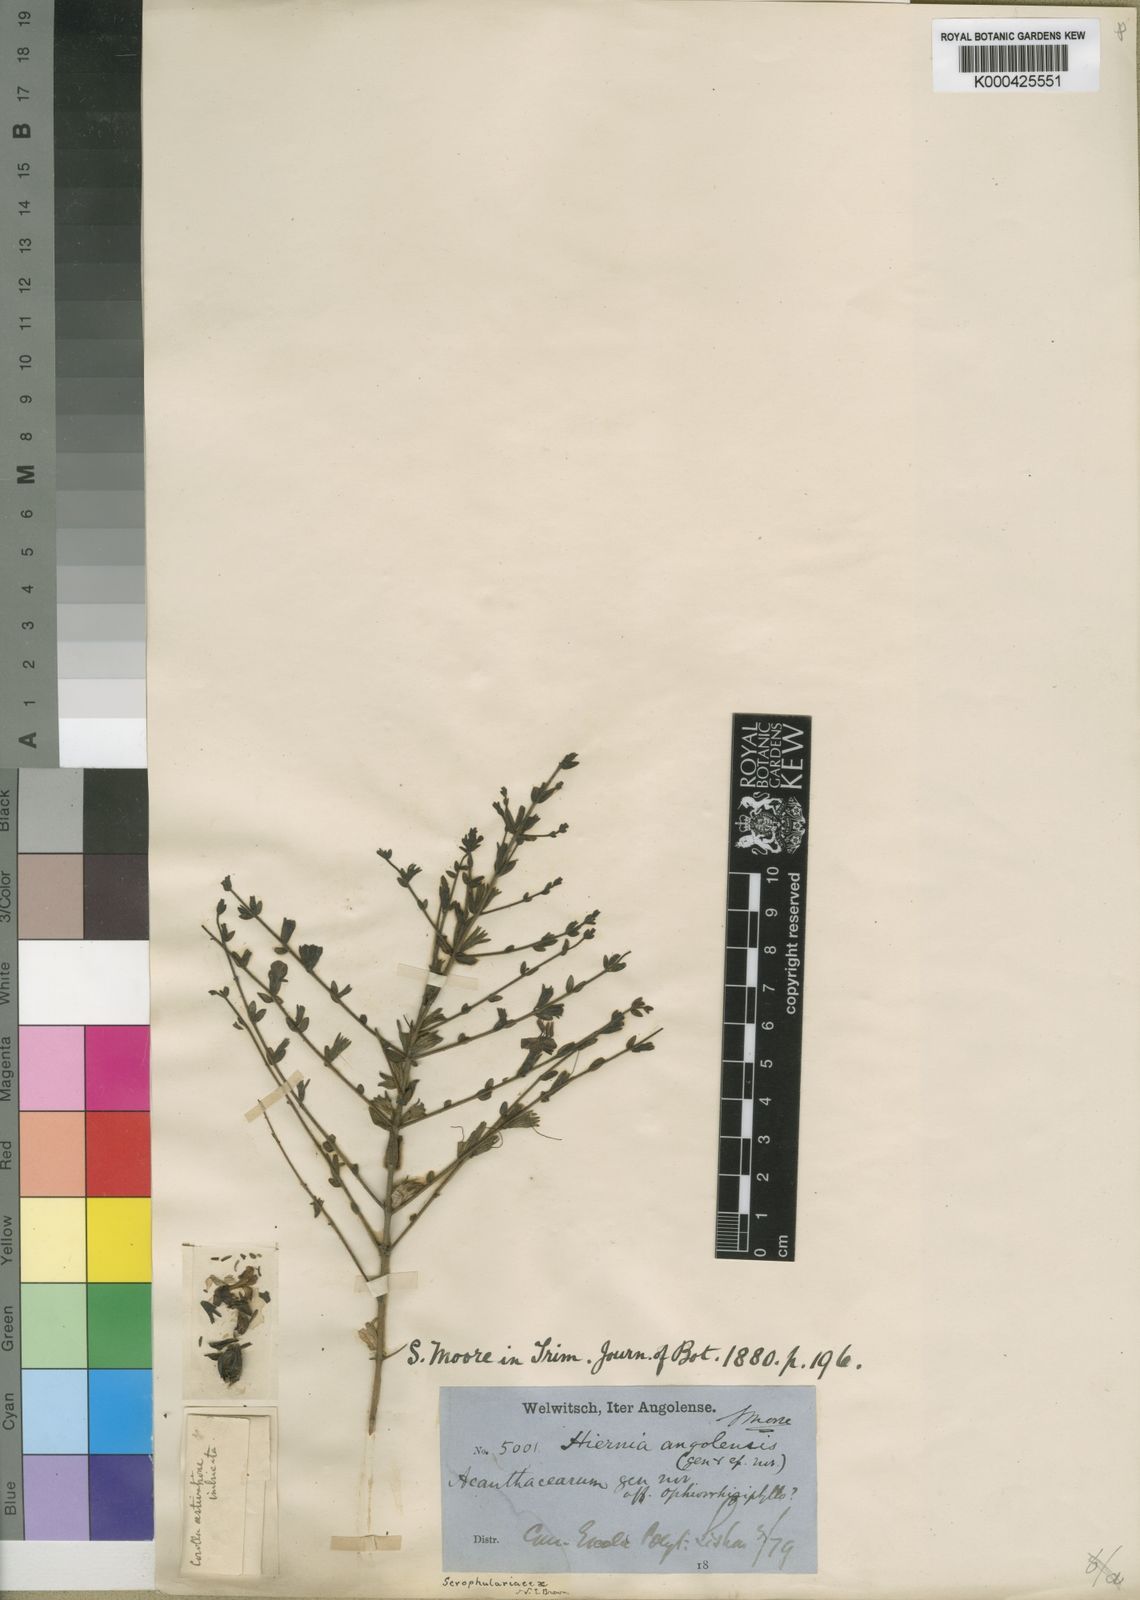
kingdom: Plantae
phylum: Tracheophyta
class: Magnoliopsida
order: Lamiales
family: Orobanchaceae
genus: Hiernia
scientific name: Hiernia angolensis
